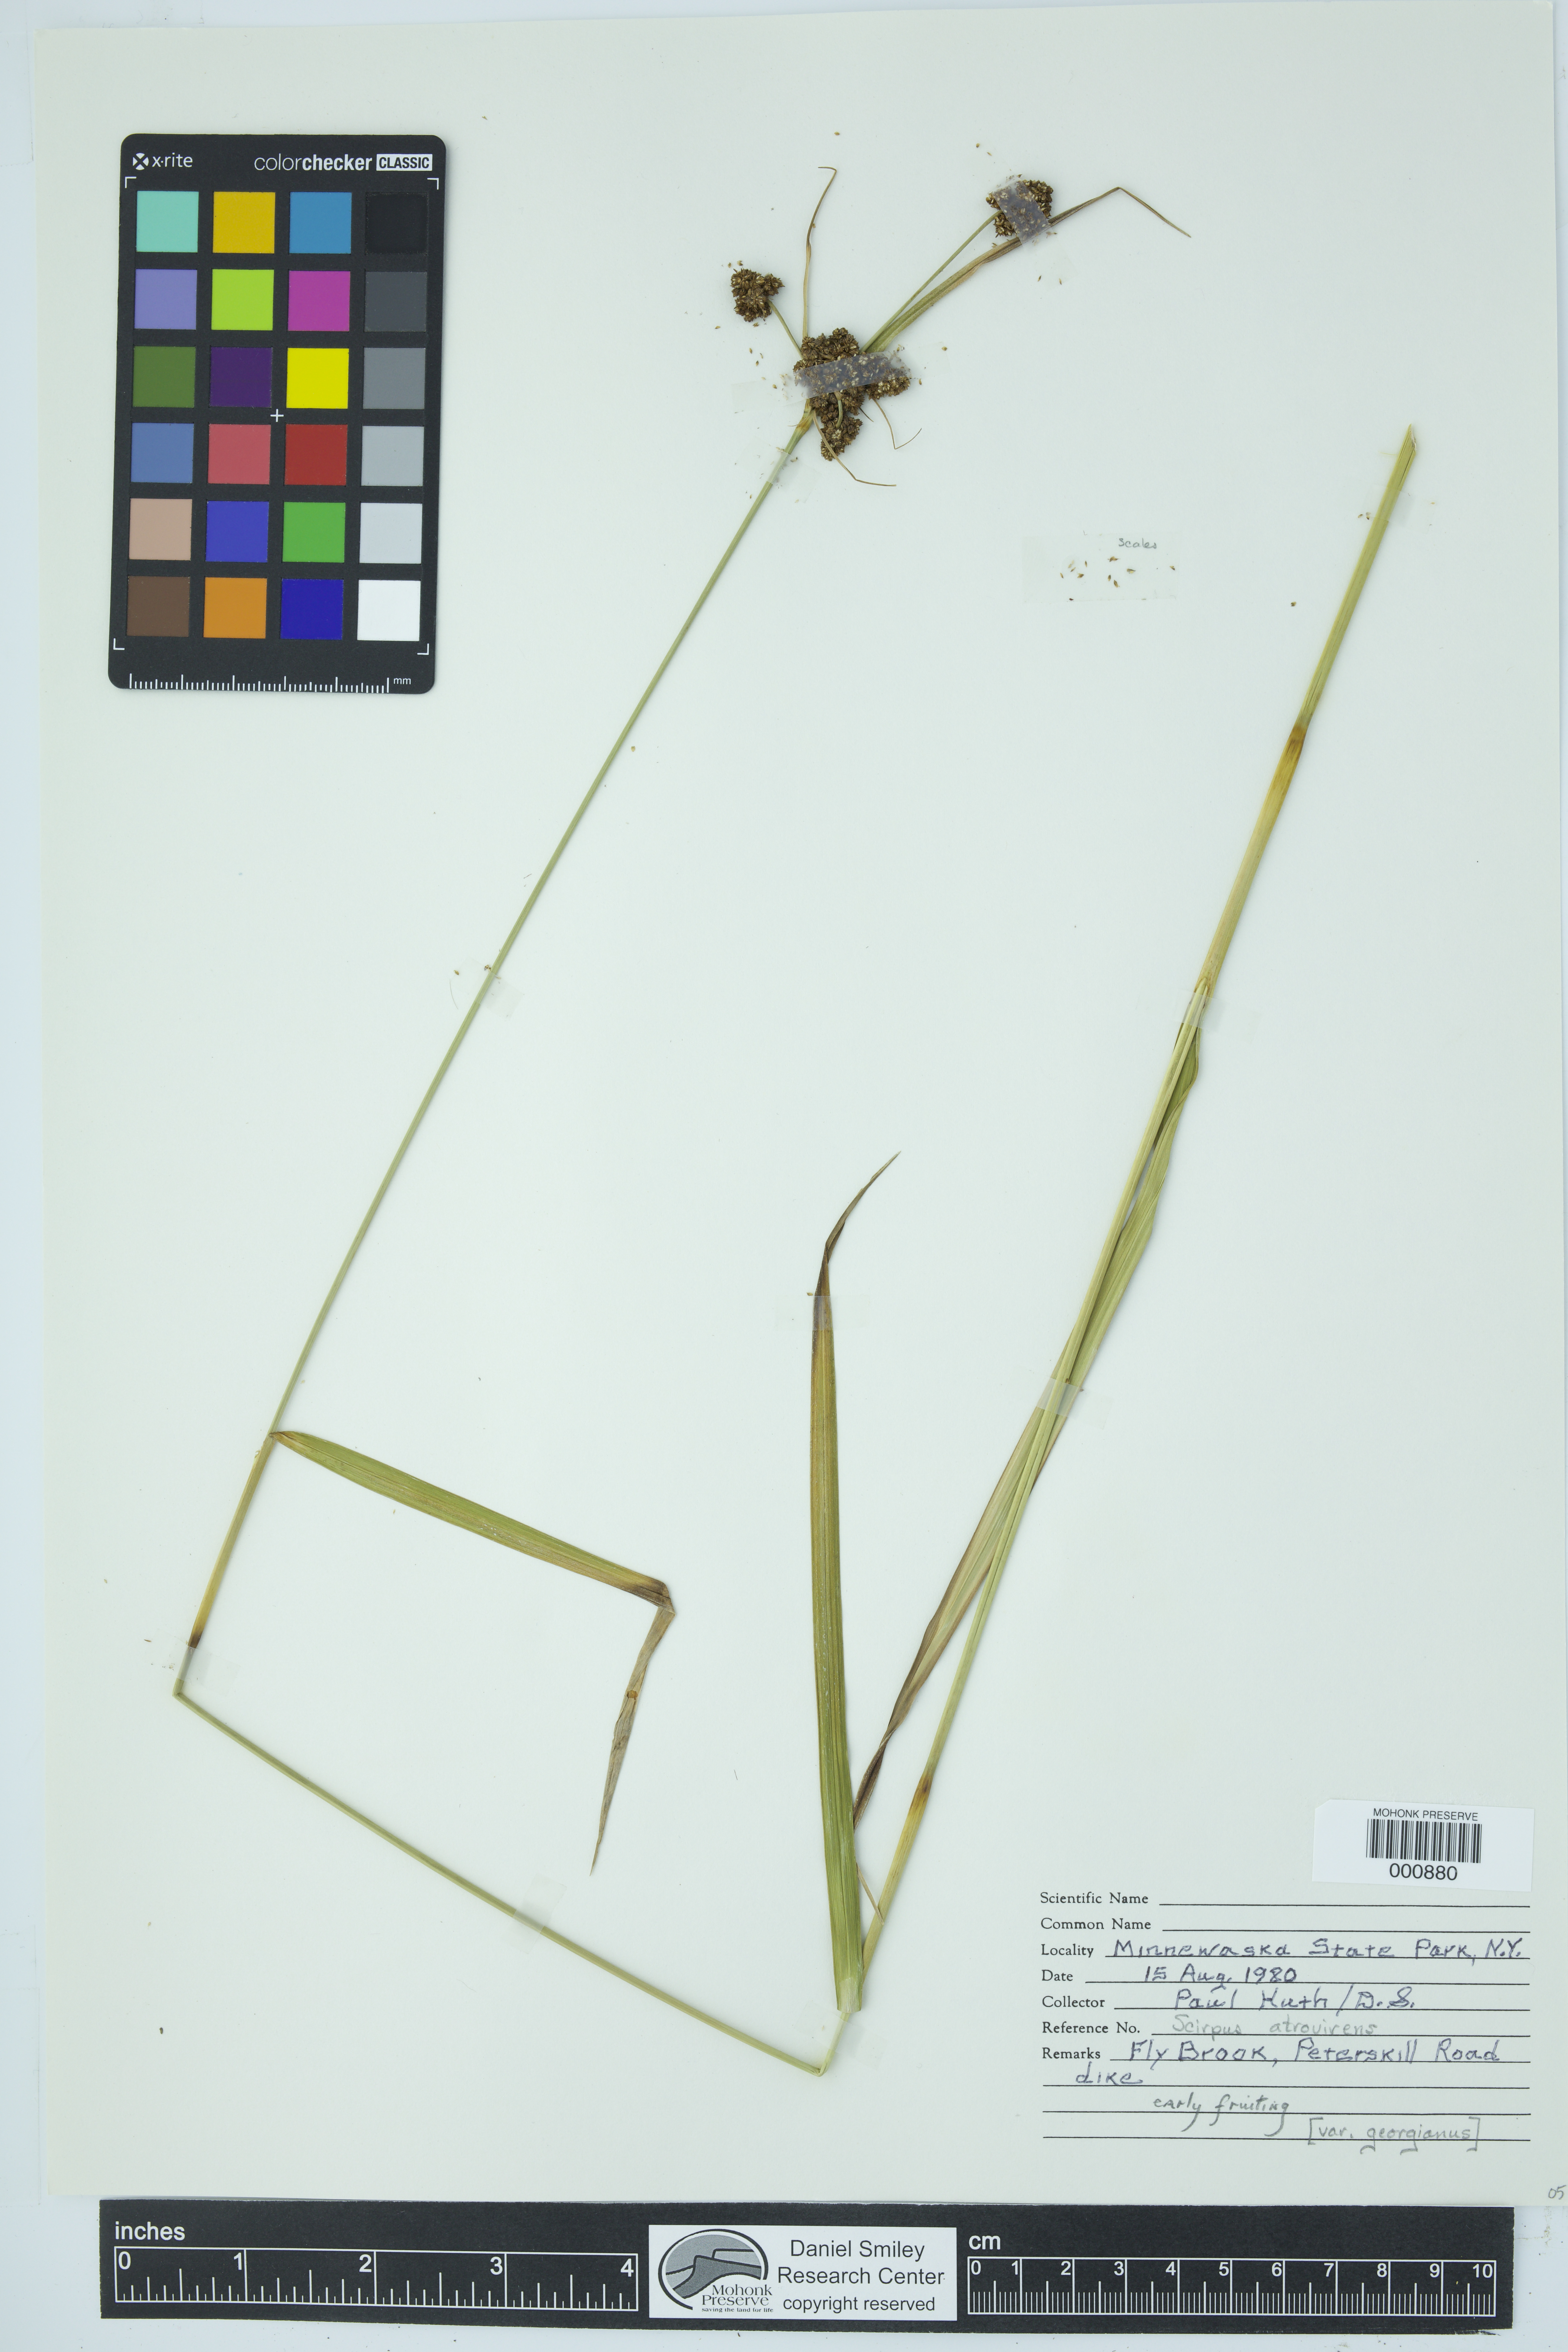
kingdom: Plantae
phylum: Tracheophyta
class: Liliopsida
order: Poales
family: Cyperaceae
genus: Scirpus
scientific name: Scirpus georgianus
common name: Bristleless dark-green bulrush
